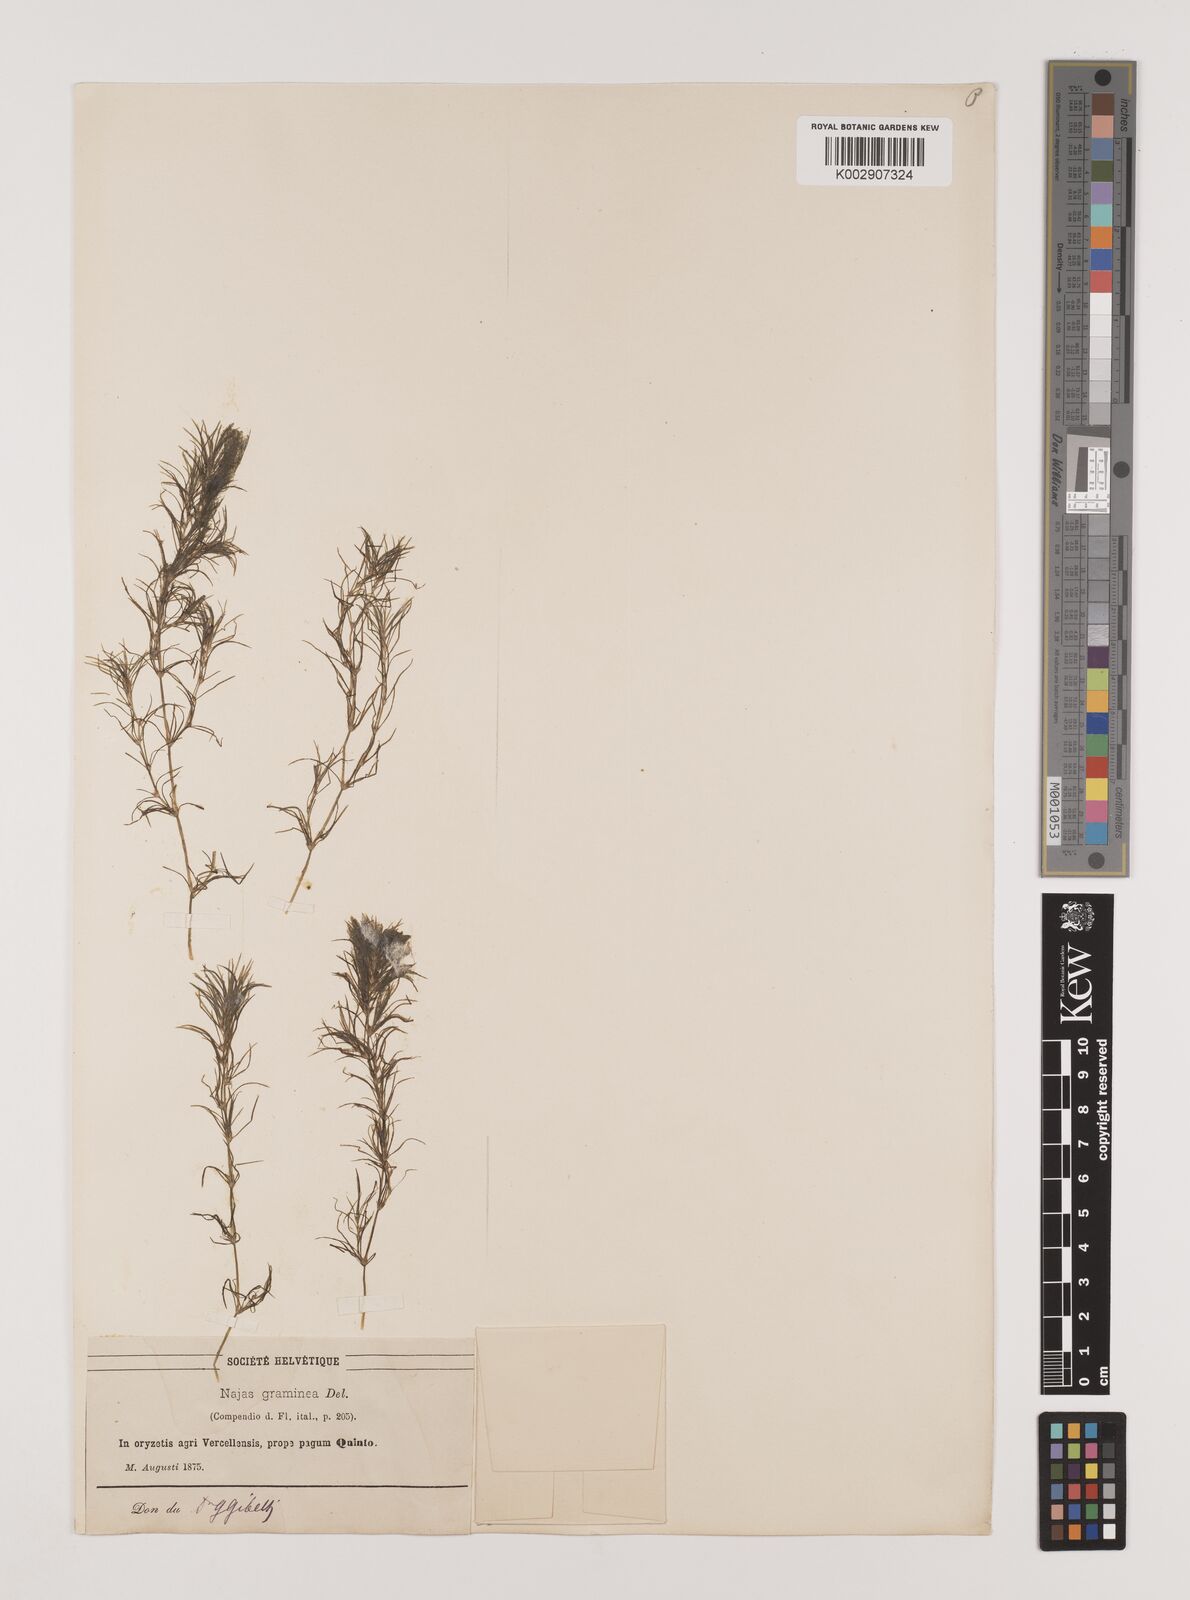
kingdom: Plantae
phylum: Tracheophyta
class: Liliopsida
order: Alismatales
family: Hydrocharitaceae
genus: Najas
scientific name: Najas graminea
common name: Ricefield waternymph
